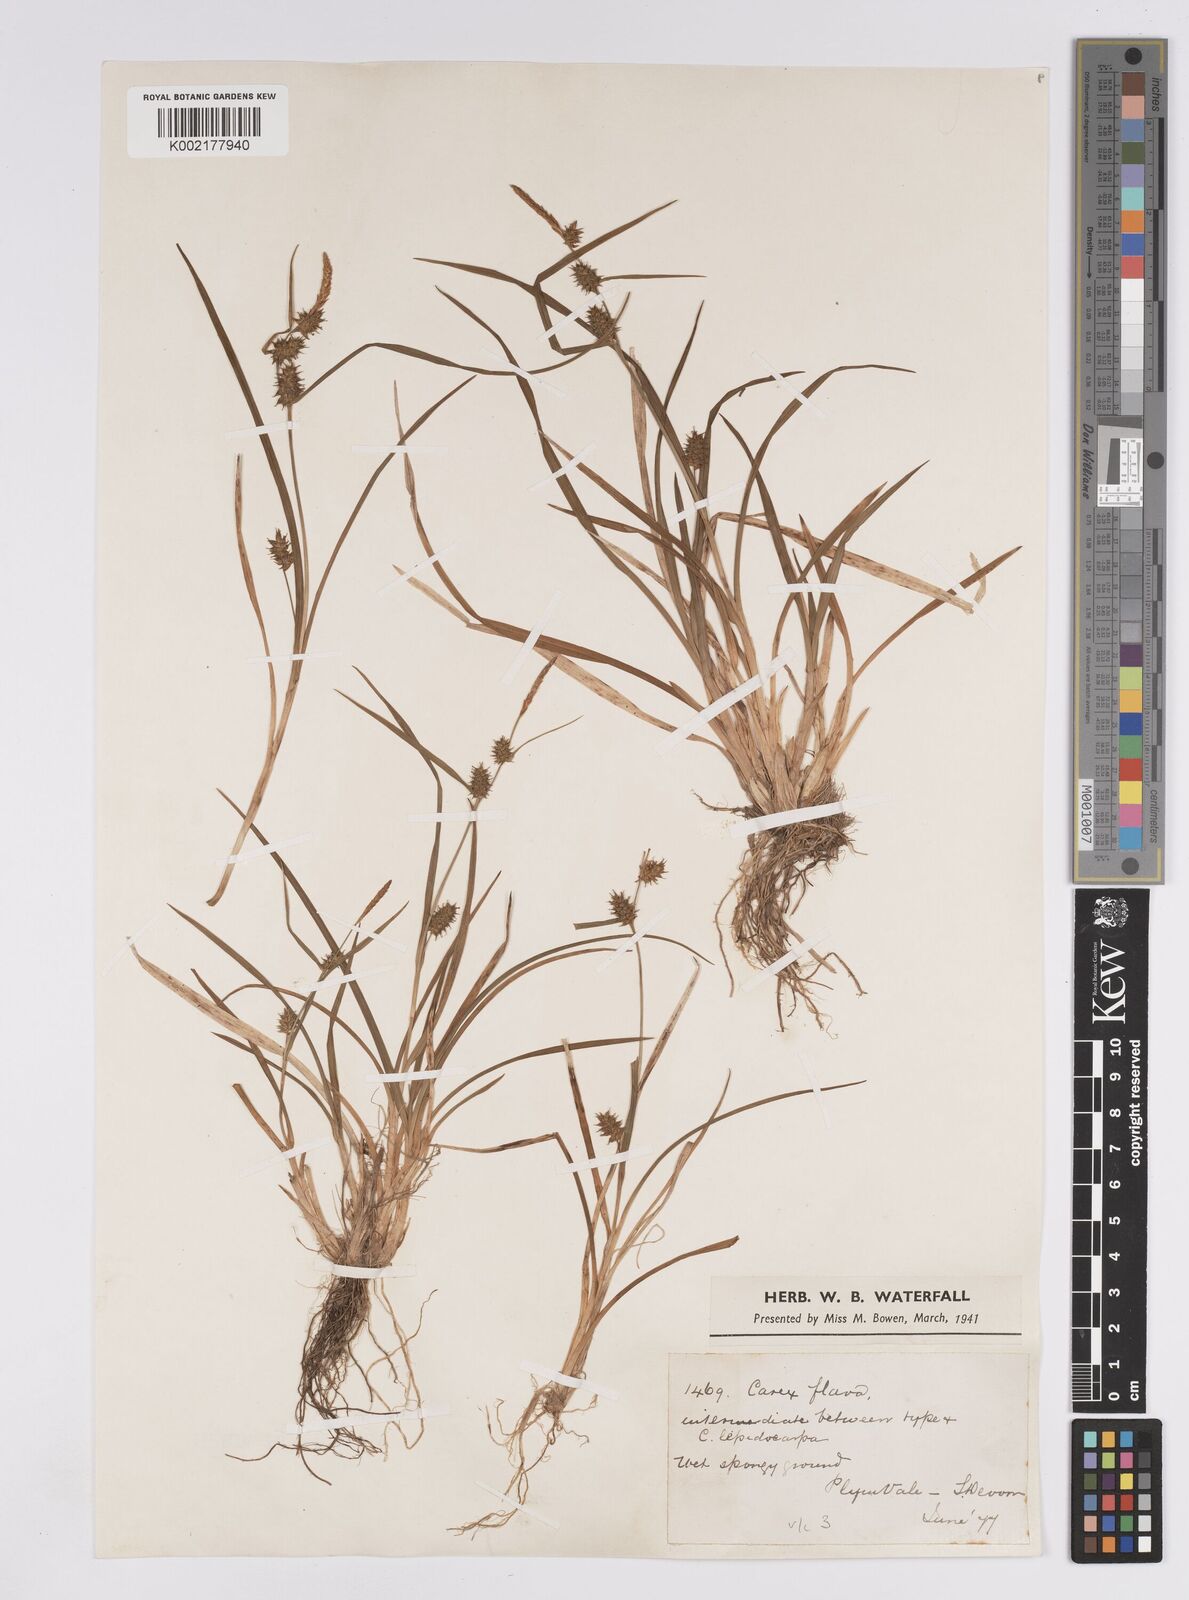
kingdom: Plantae
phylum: Tracheophyta
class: Liliopsida
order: Poales
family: Cyperaceae
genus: Carex
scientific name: Carex demissa
